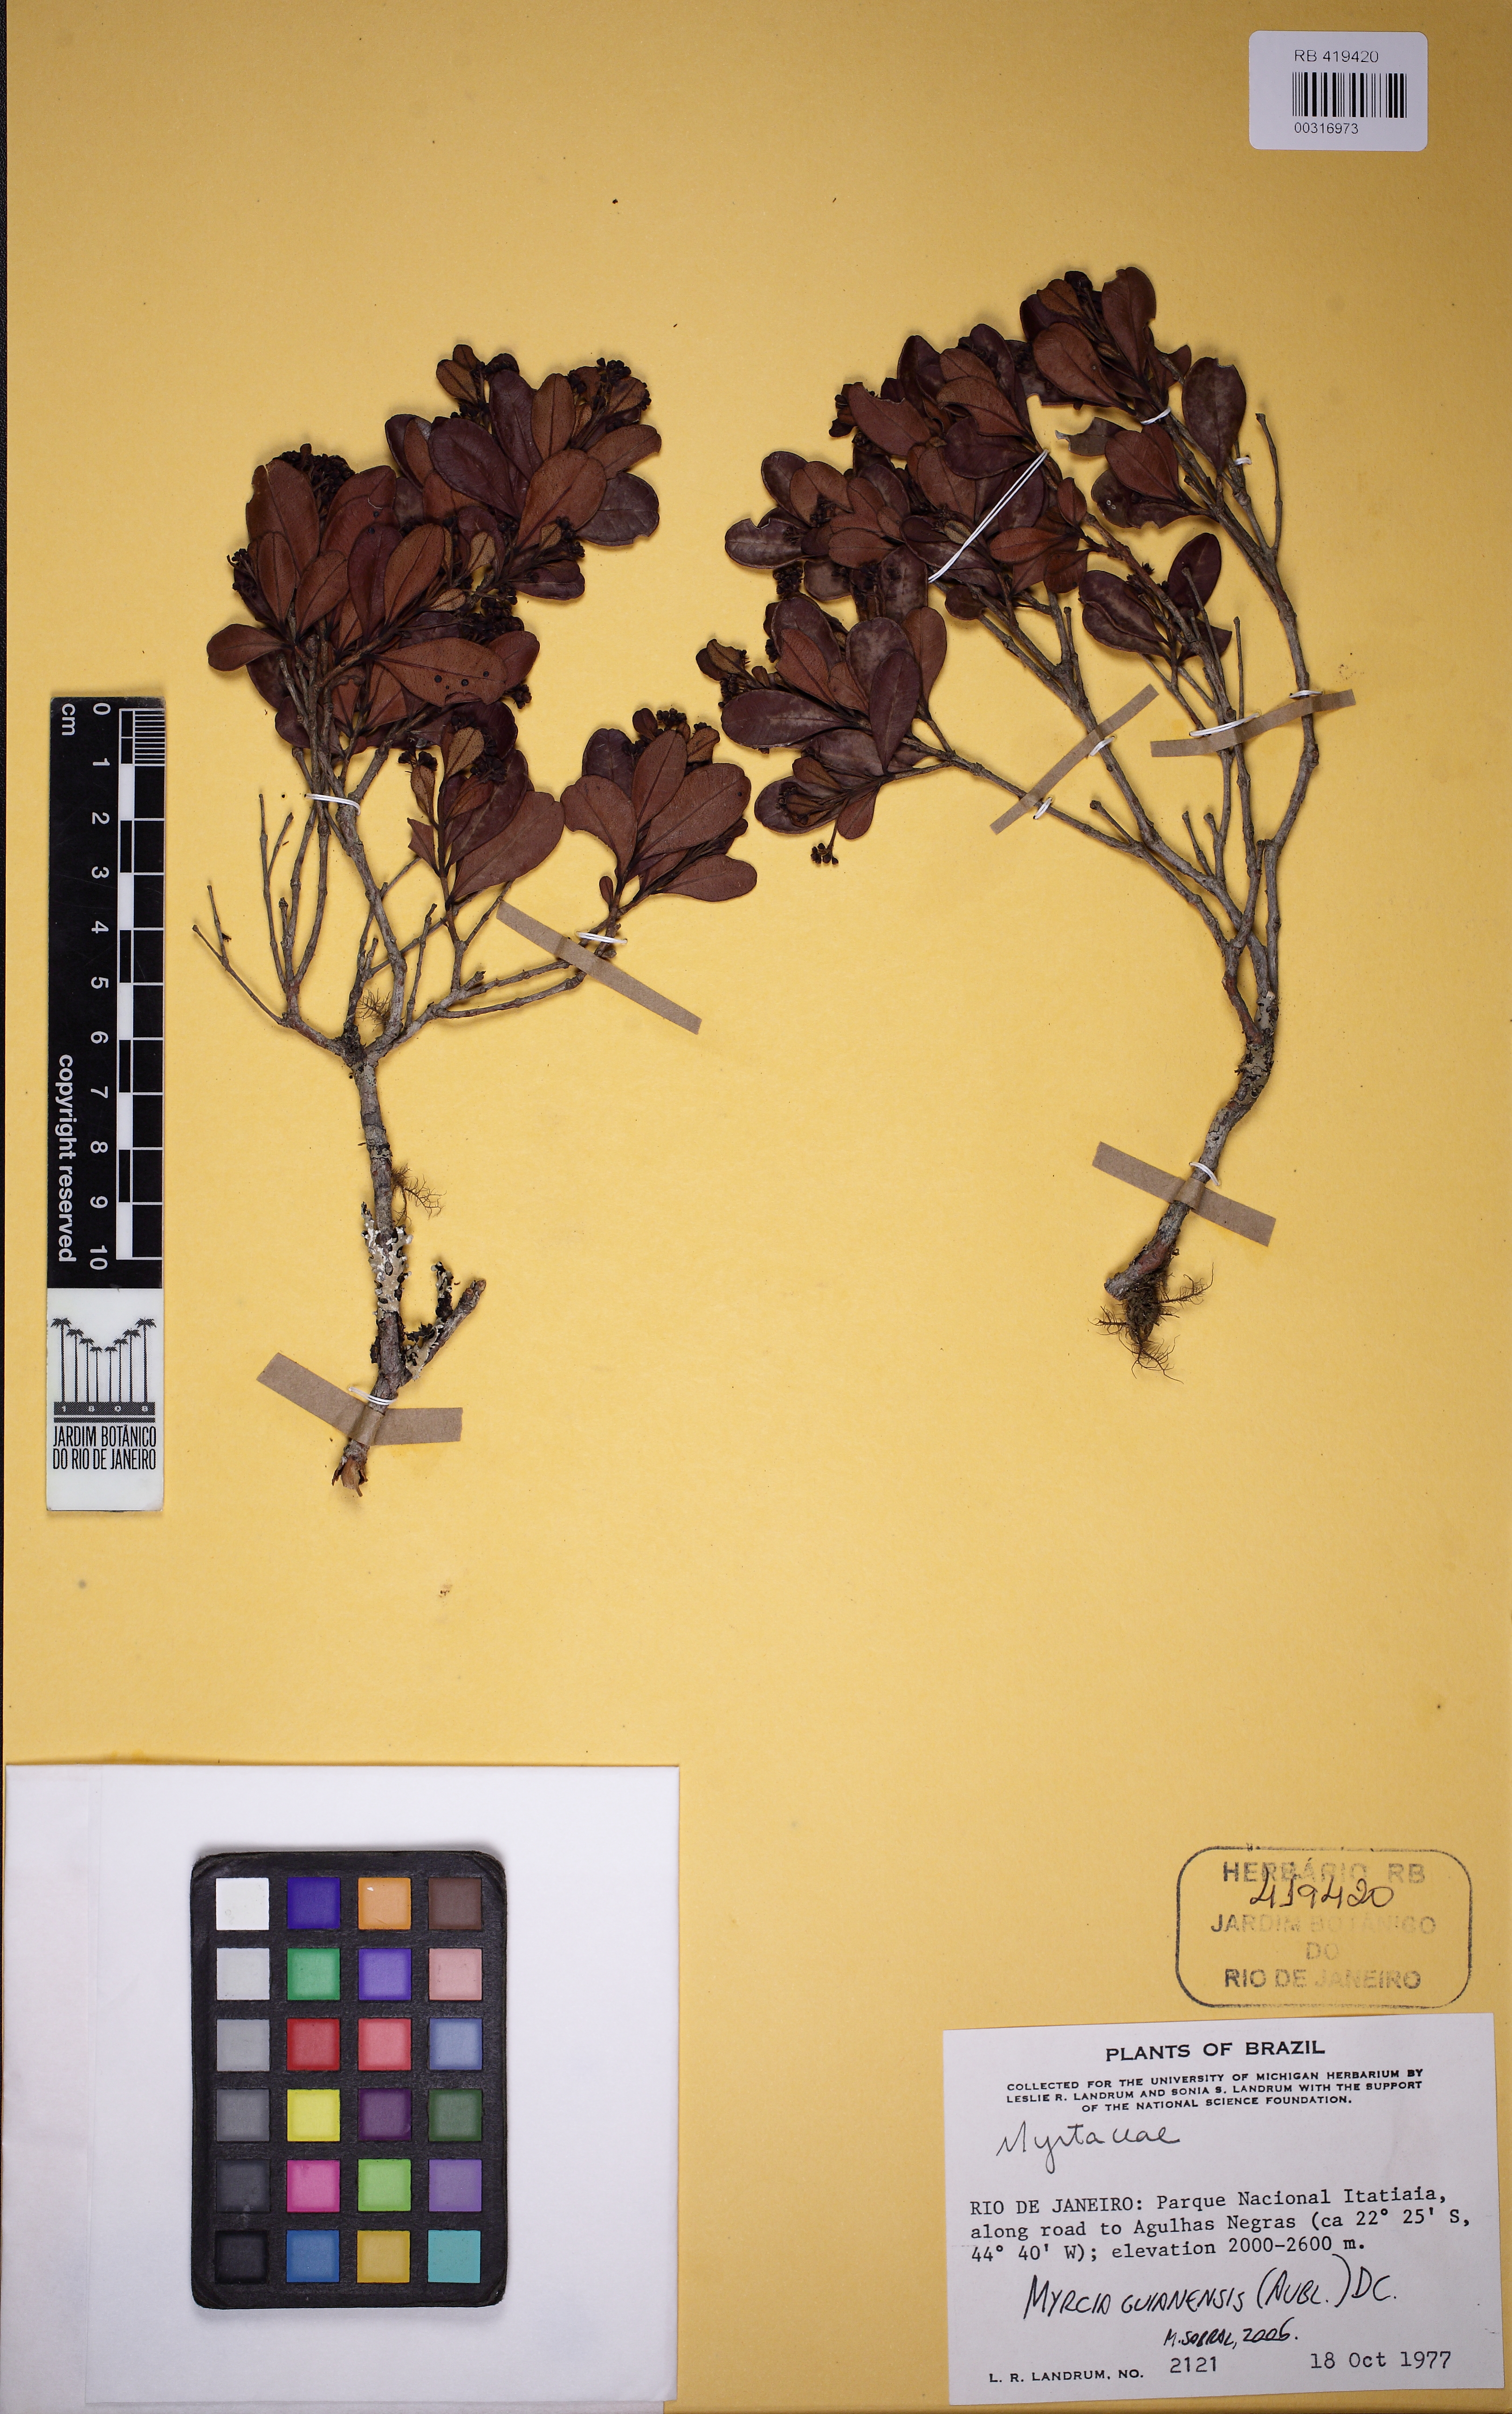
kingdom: Plantae
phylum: Tracheophyta
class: Magnoliopsida
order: Myrtales
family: Myrtaceae
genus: Myrcia
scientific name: Myrcia guianensis
